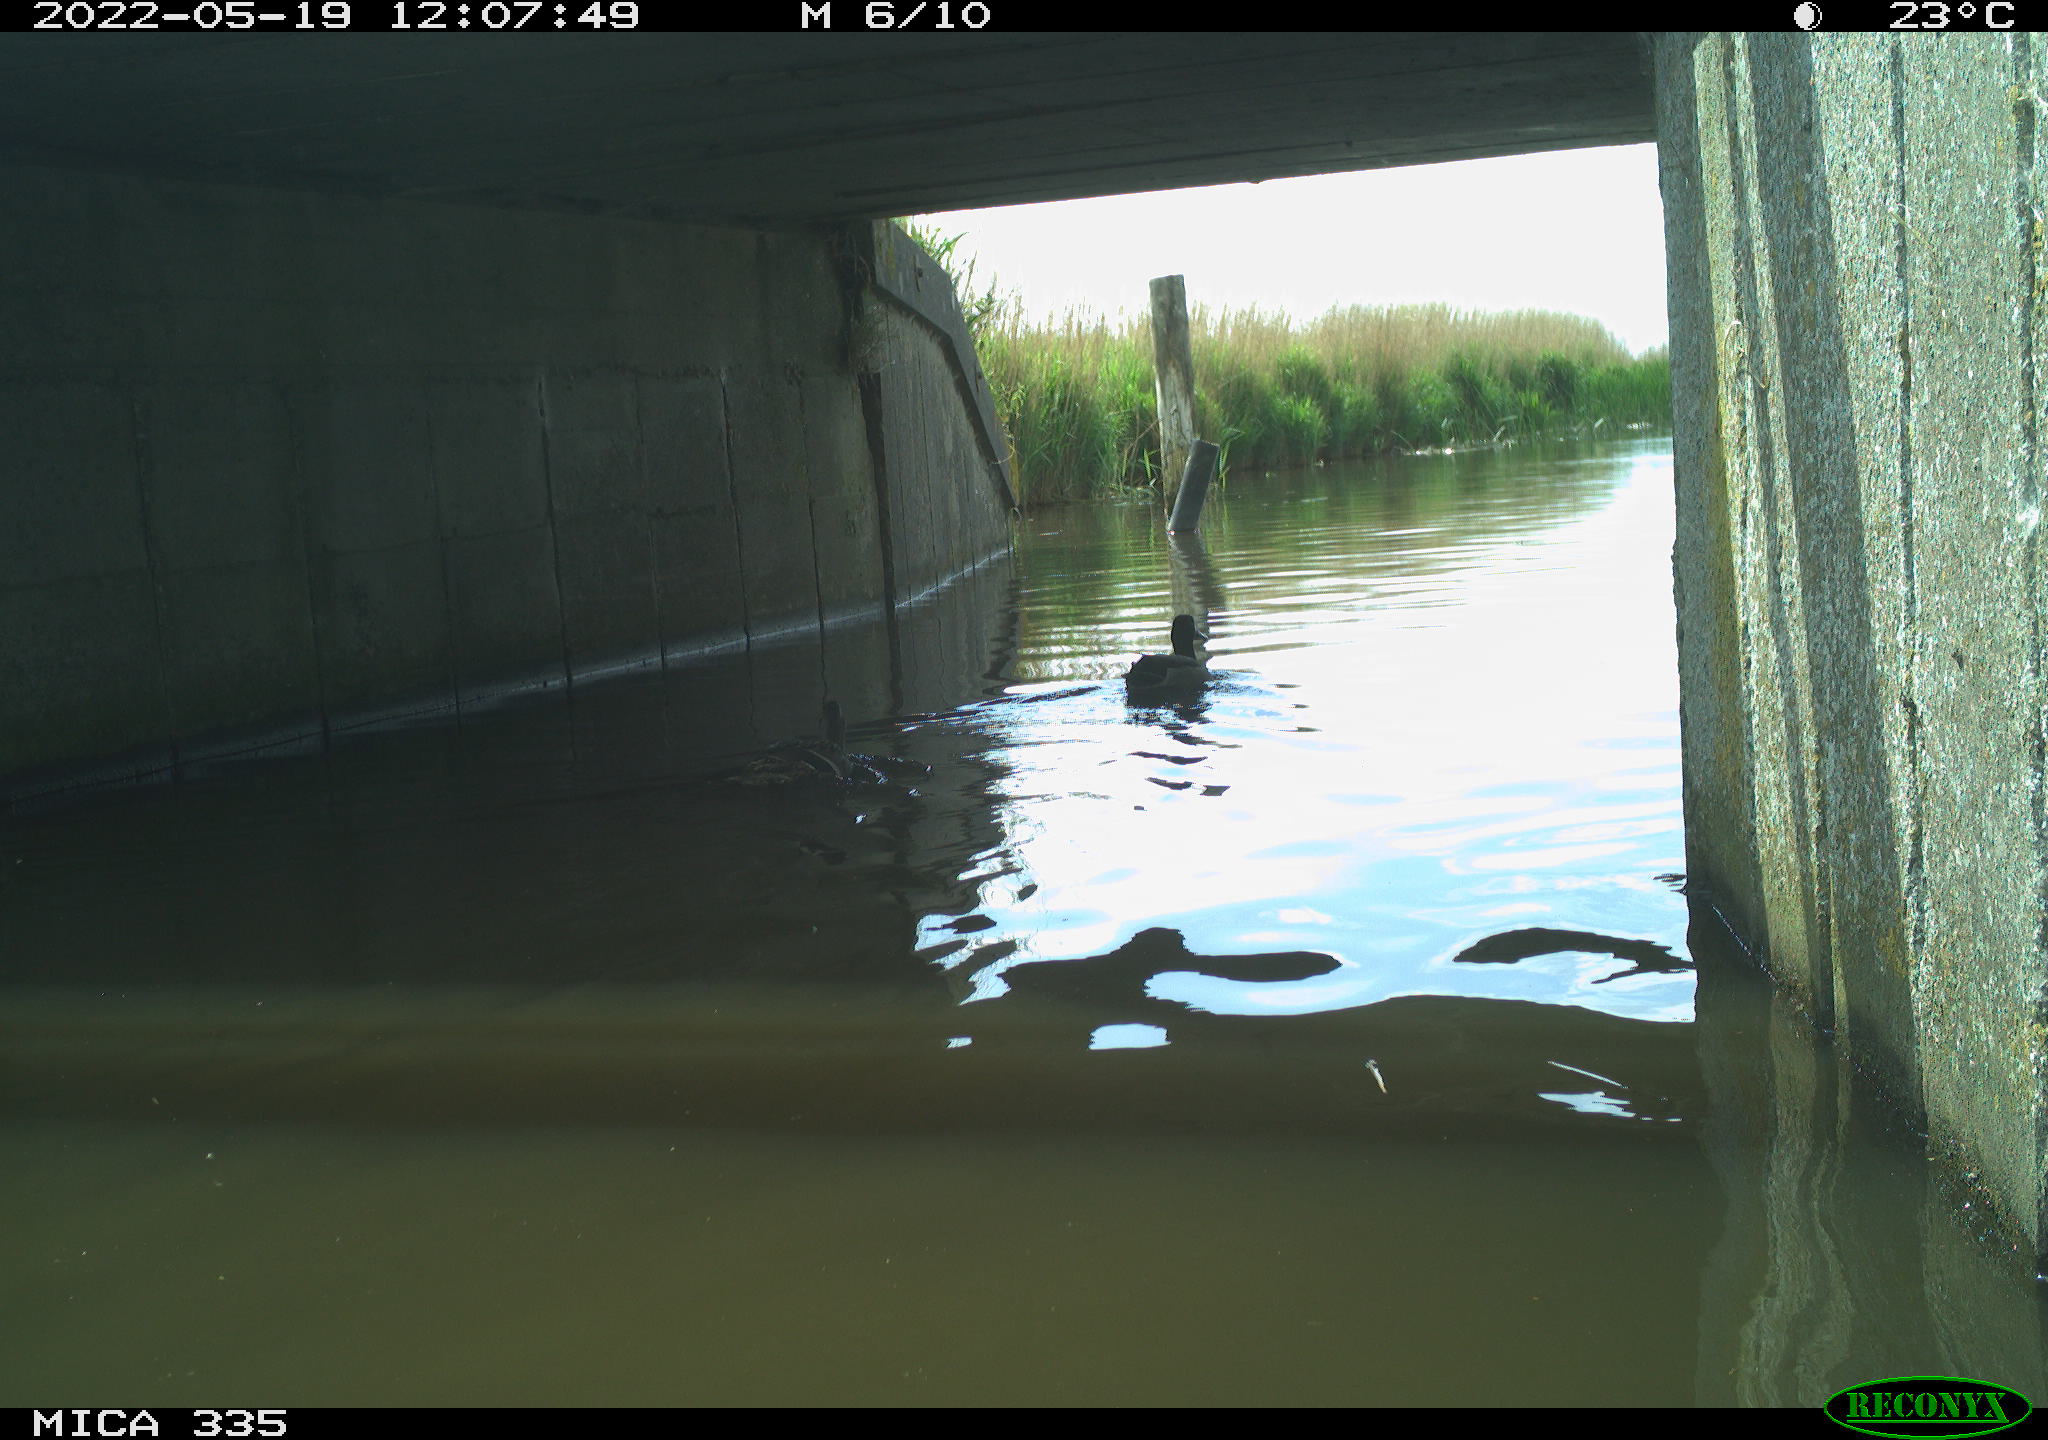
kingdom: Animalia
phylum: Chordata
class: Aves
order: Anseriformes
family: Anatidae
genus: Anas
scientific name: Anas platyrhynchos
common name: Mallard
